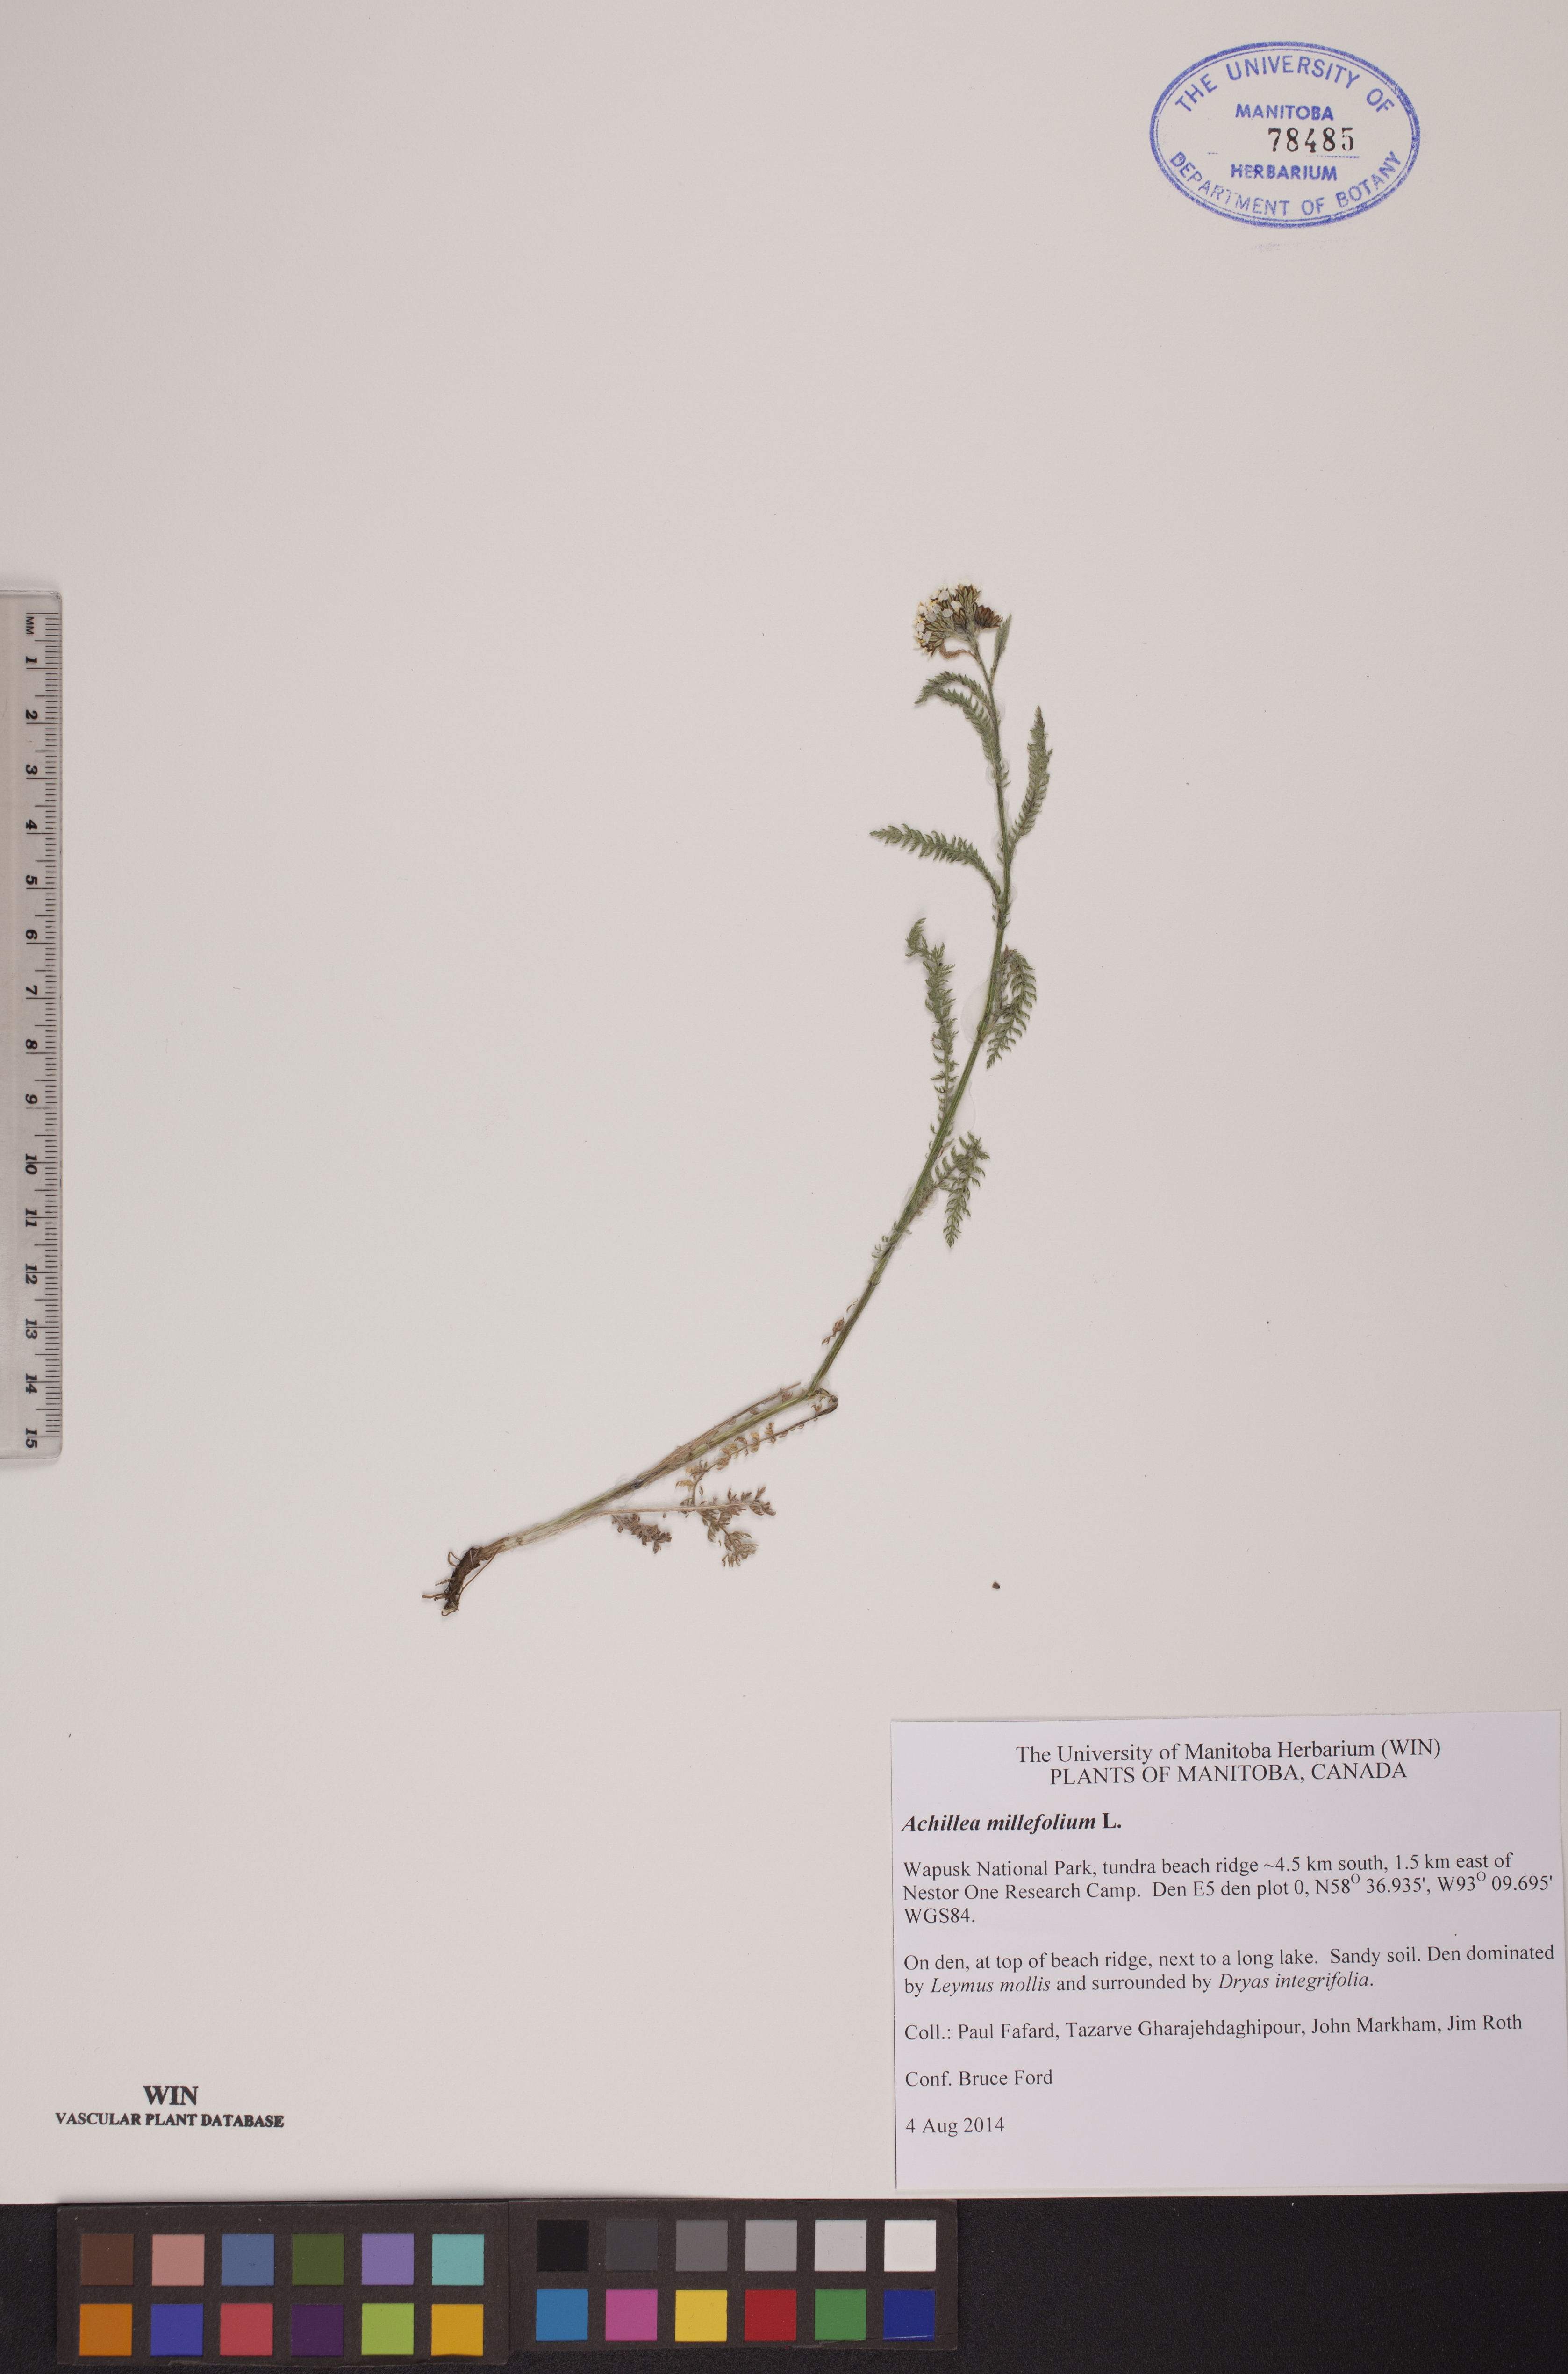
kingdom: Plantae
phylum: Tracheophyta
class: Magnoliopsida
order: Asterales
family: Asteraceae
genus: Achillea
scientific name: Achillea millefolium
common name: Yarrow
